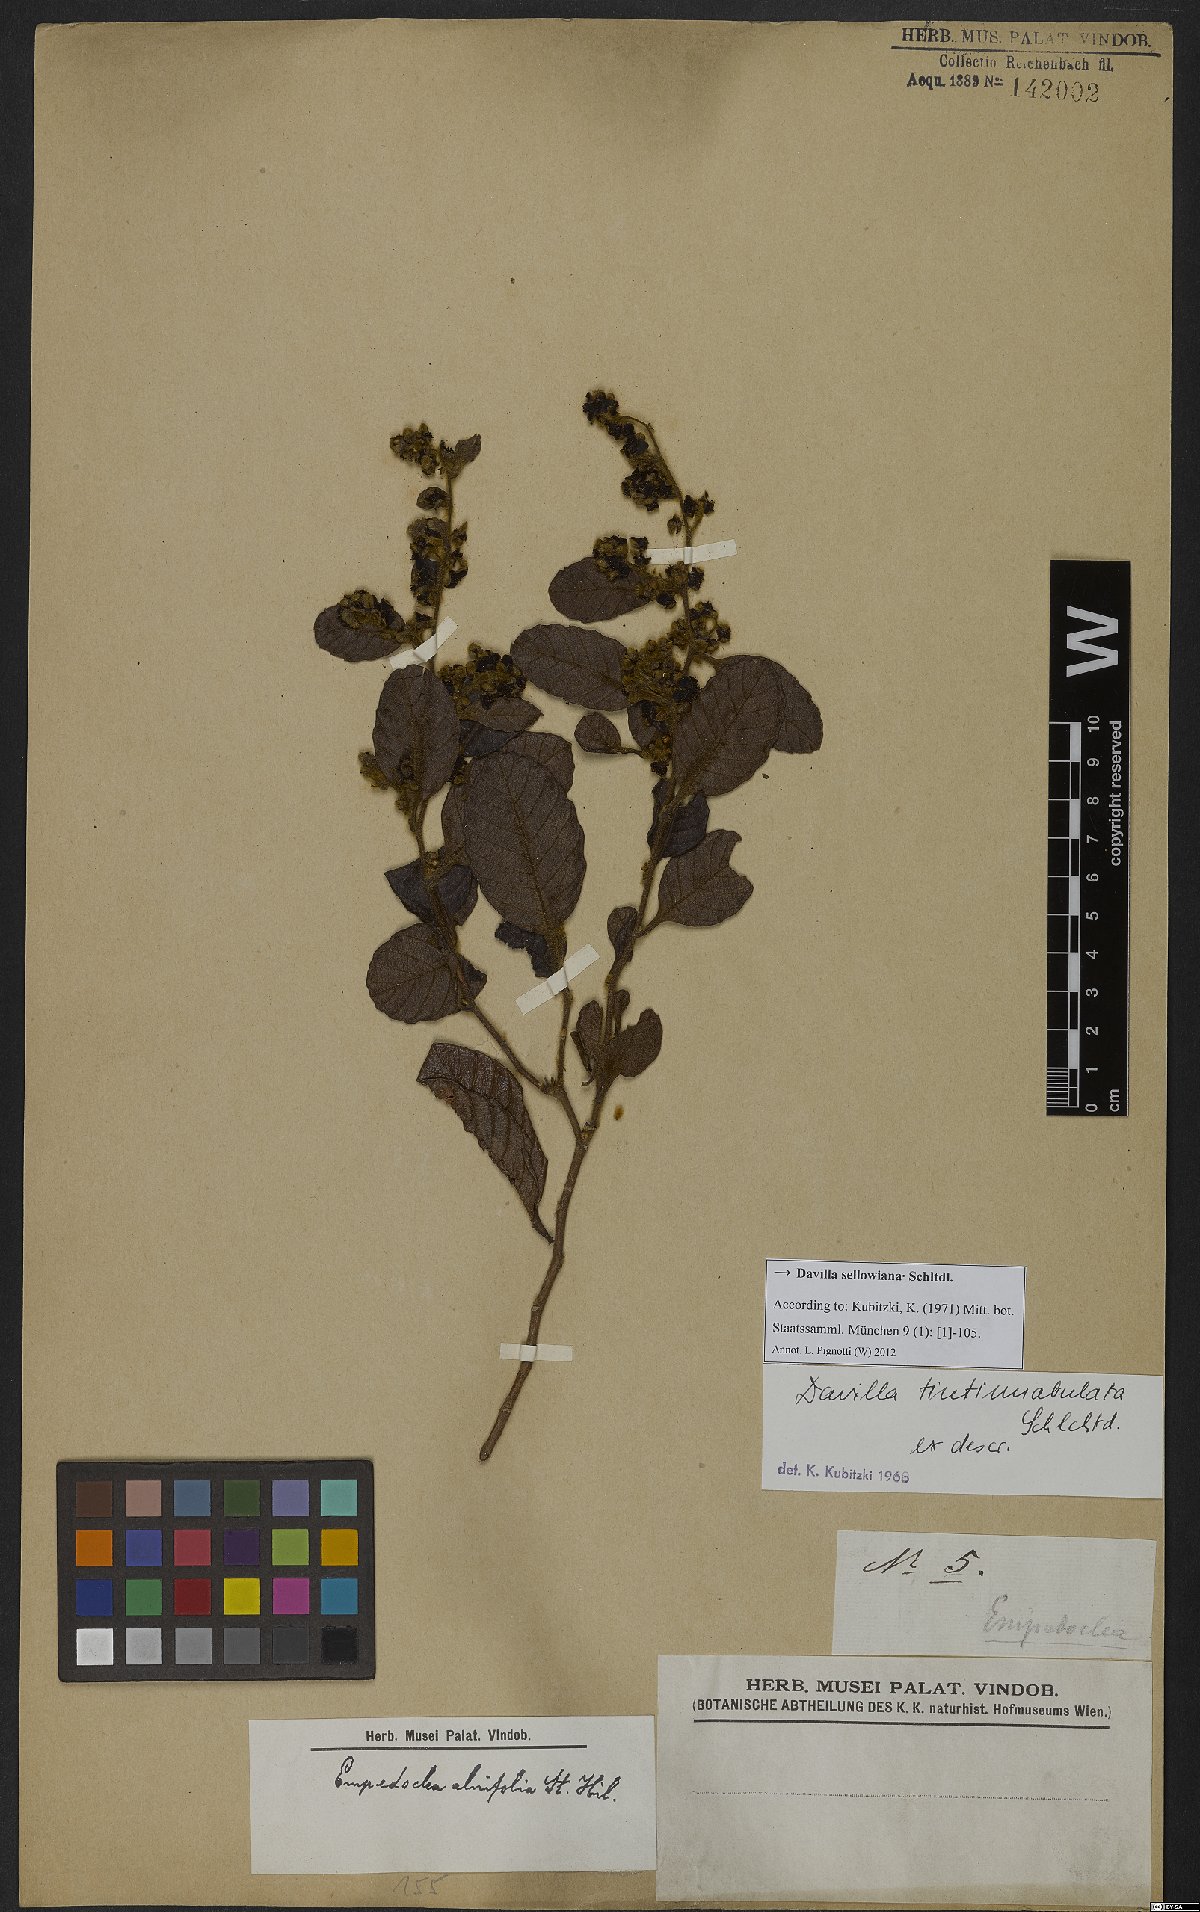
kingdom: Plantae
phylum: Tracheophyta
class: Magnoliopsida
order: Dilleniales
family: Dilleniaceae
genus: Davilla
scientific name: Davilla sellowiana
